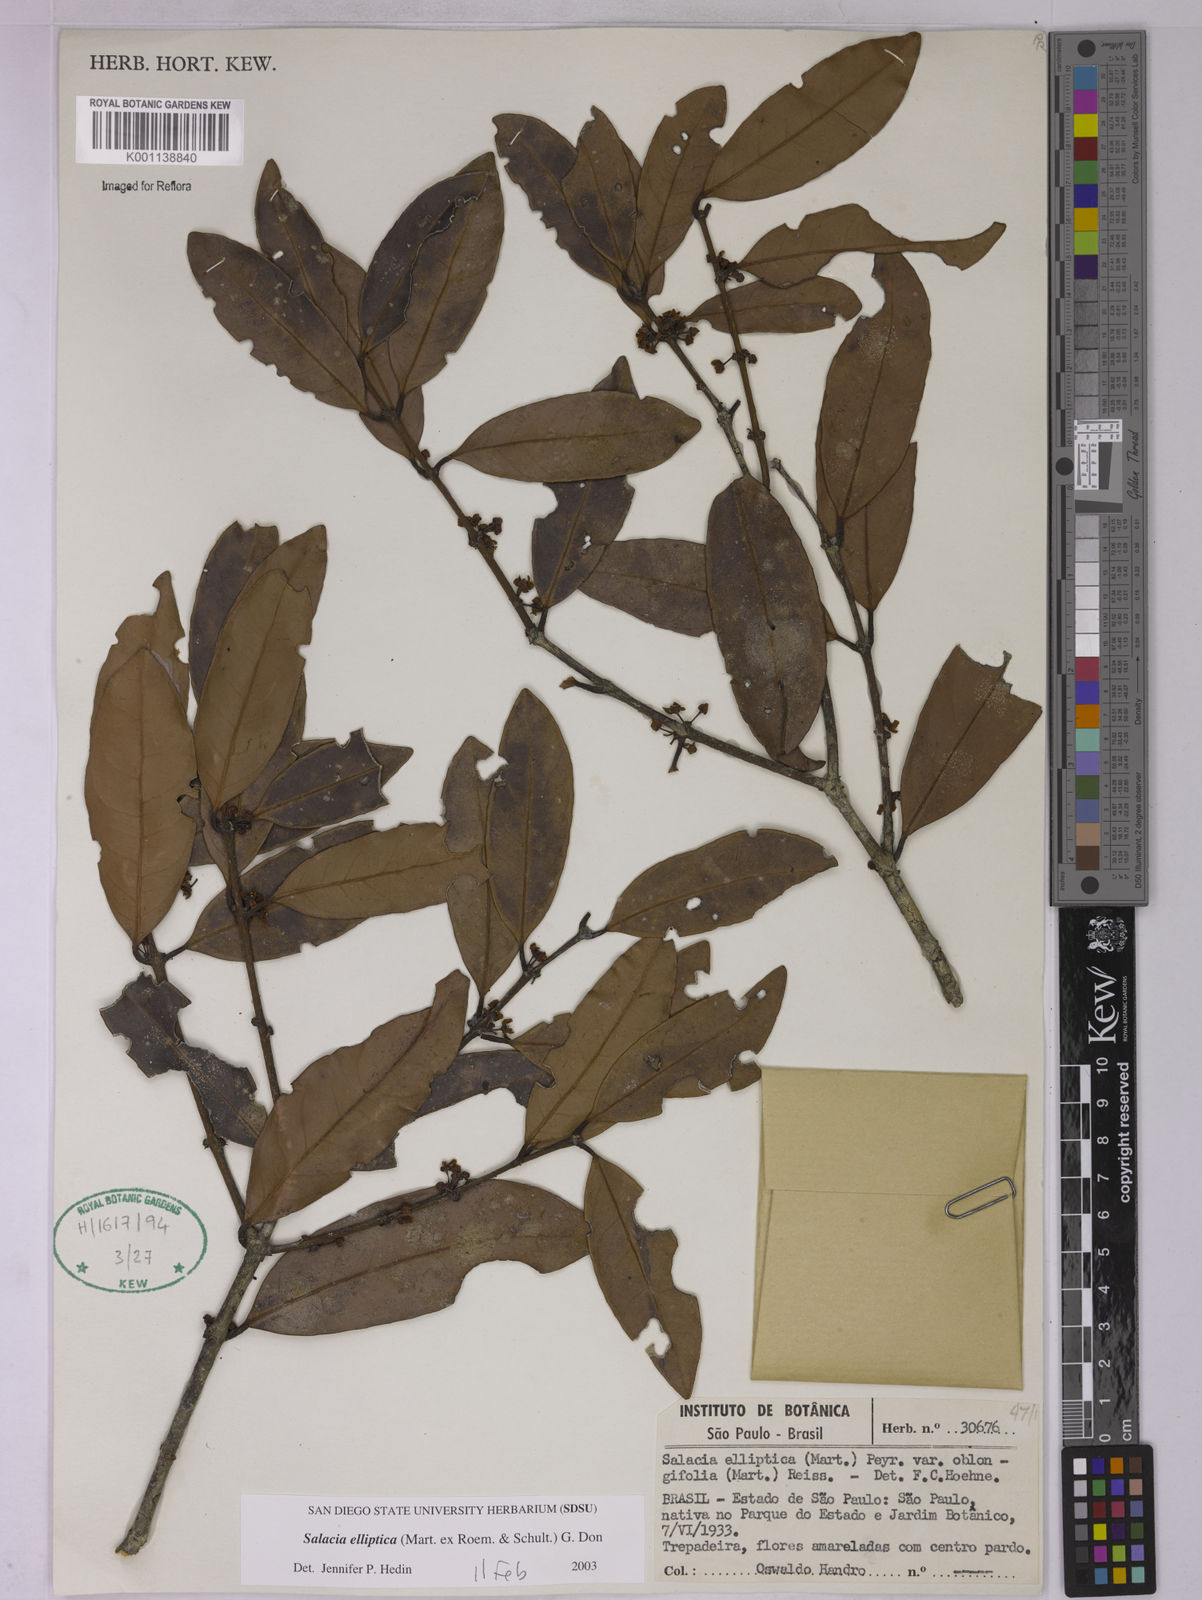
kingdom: Plantae
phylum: Tracheophyta
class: Magnoliopsida
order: Celastrales
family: Celastraceae
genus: Salacia
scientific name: Salacia elliptica
